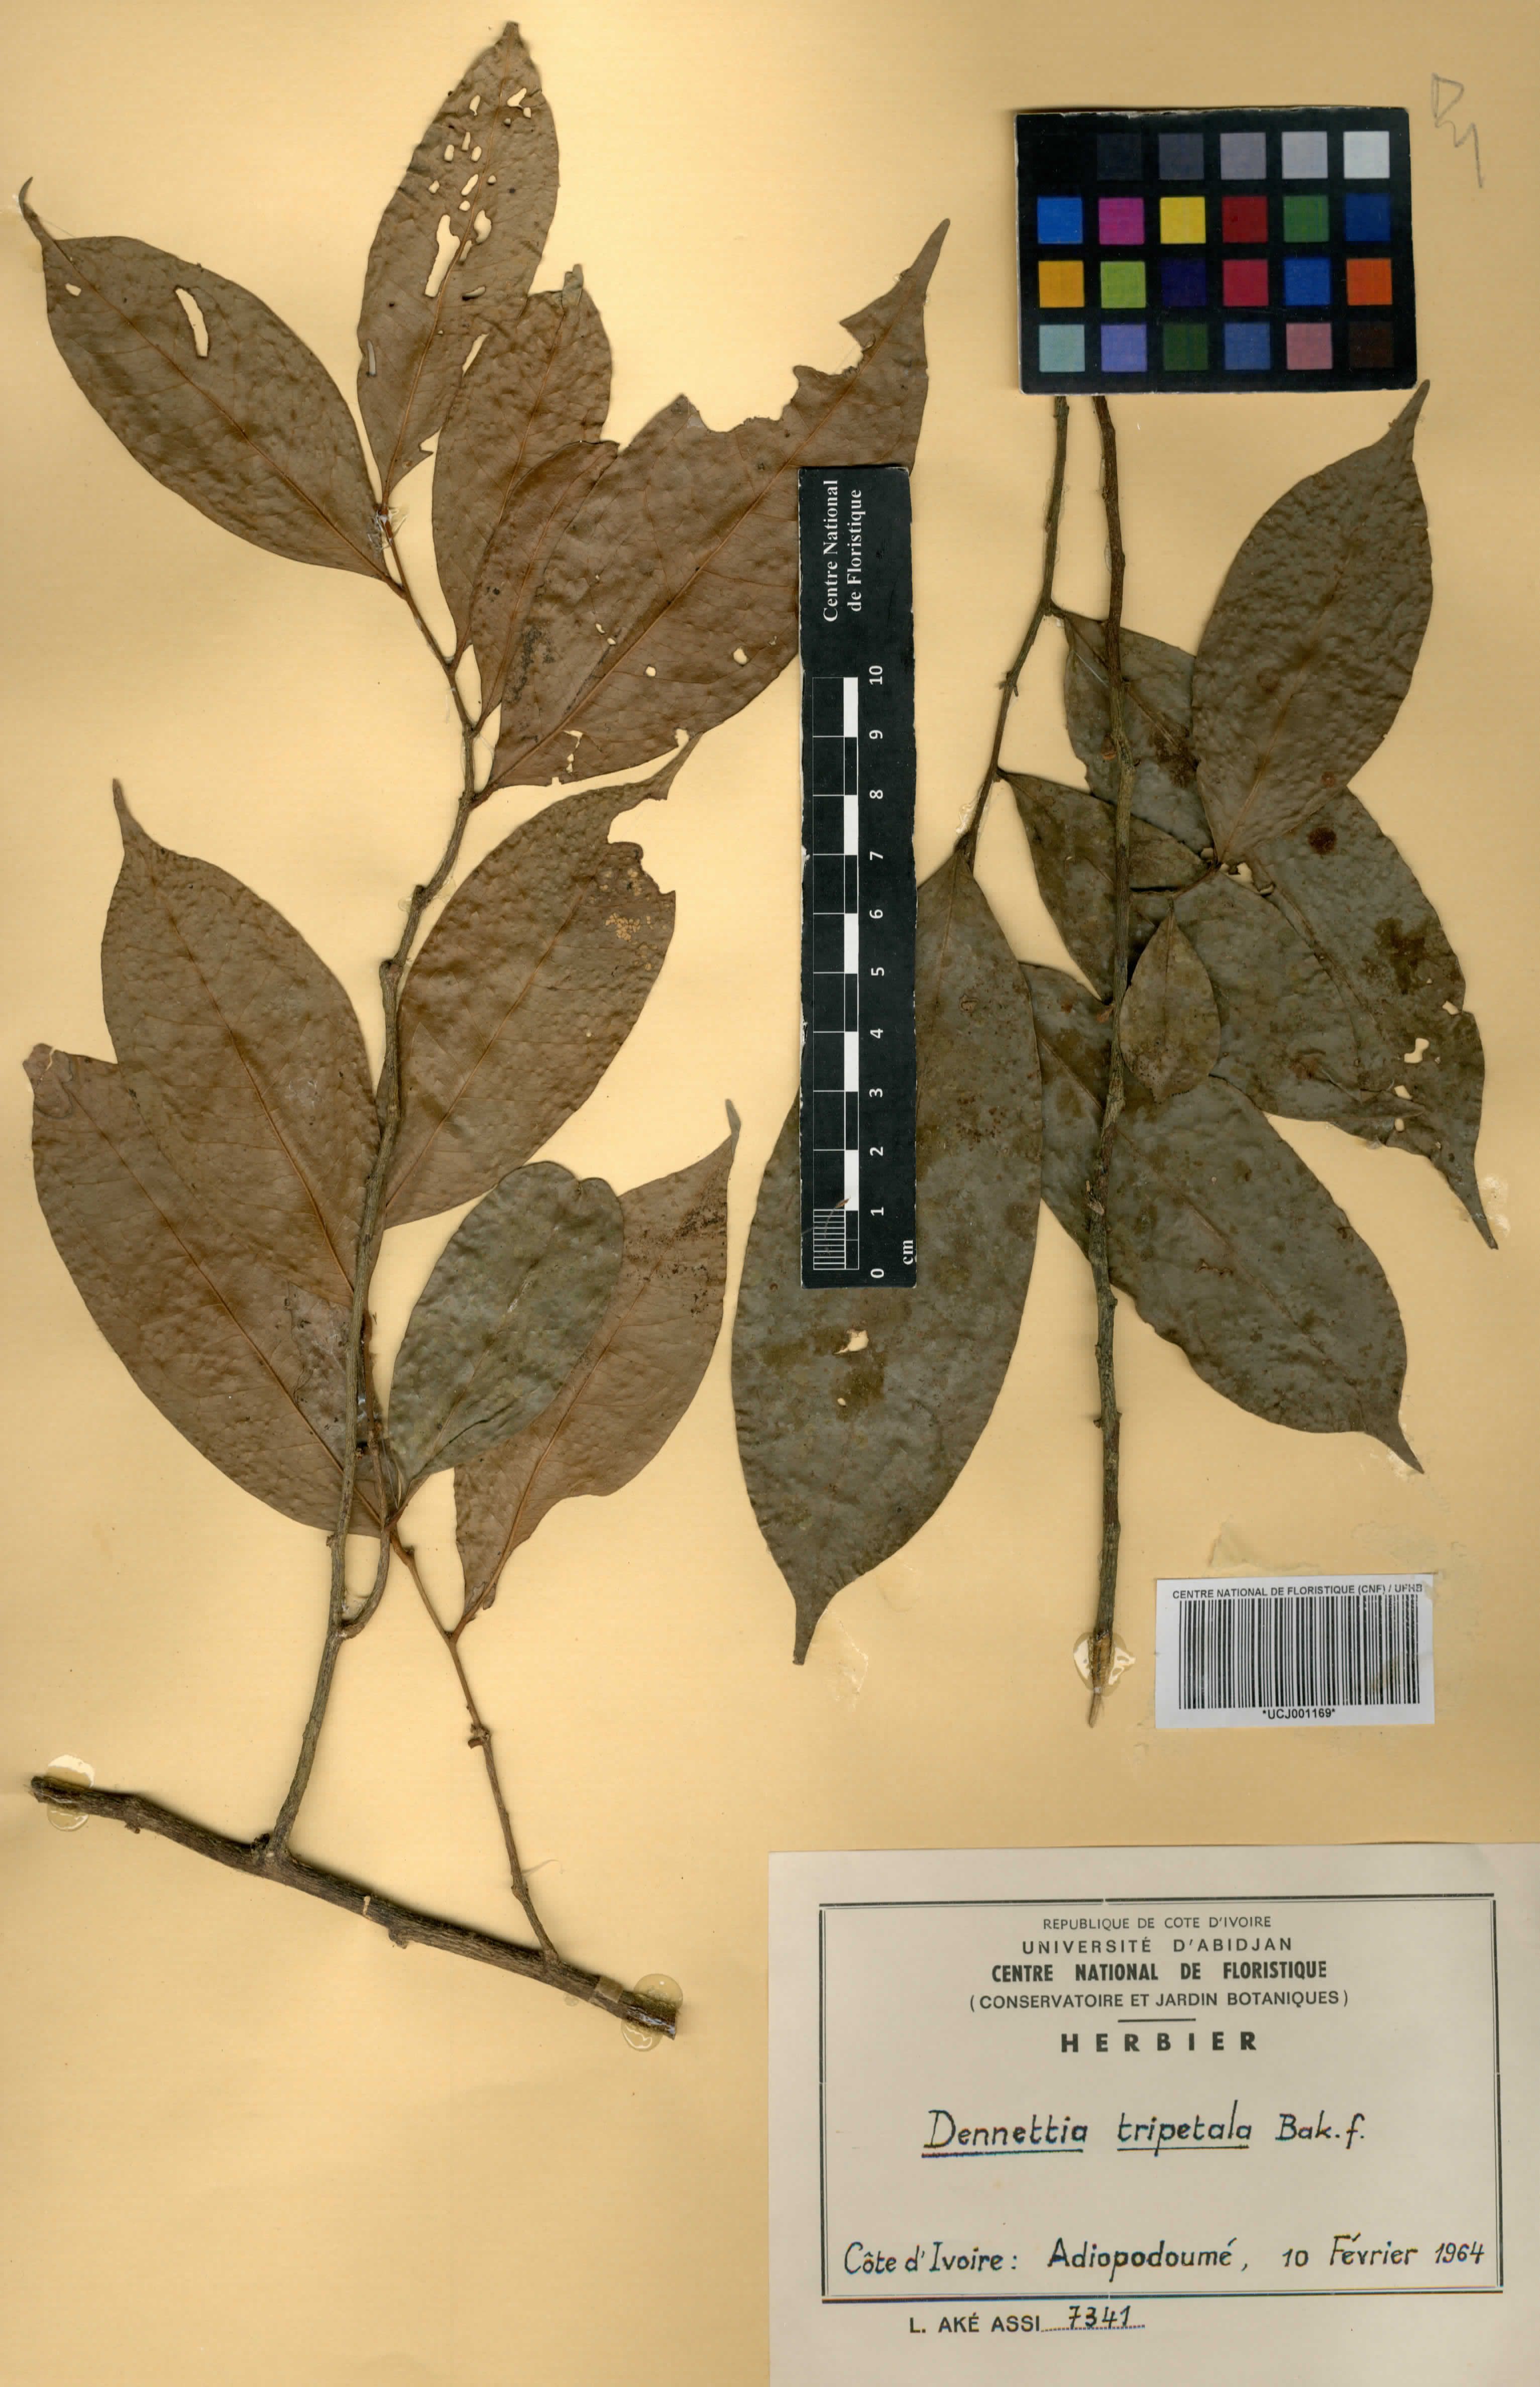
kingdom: Plantae
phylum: Tracheophyta
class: Magnoliopsida
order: Magnoliales
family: Annonaceae
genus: Uvariopsis
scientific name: Uvariopsis tripetala
